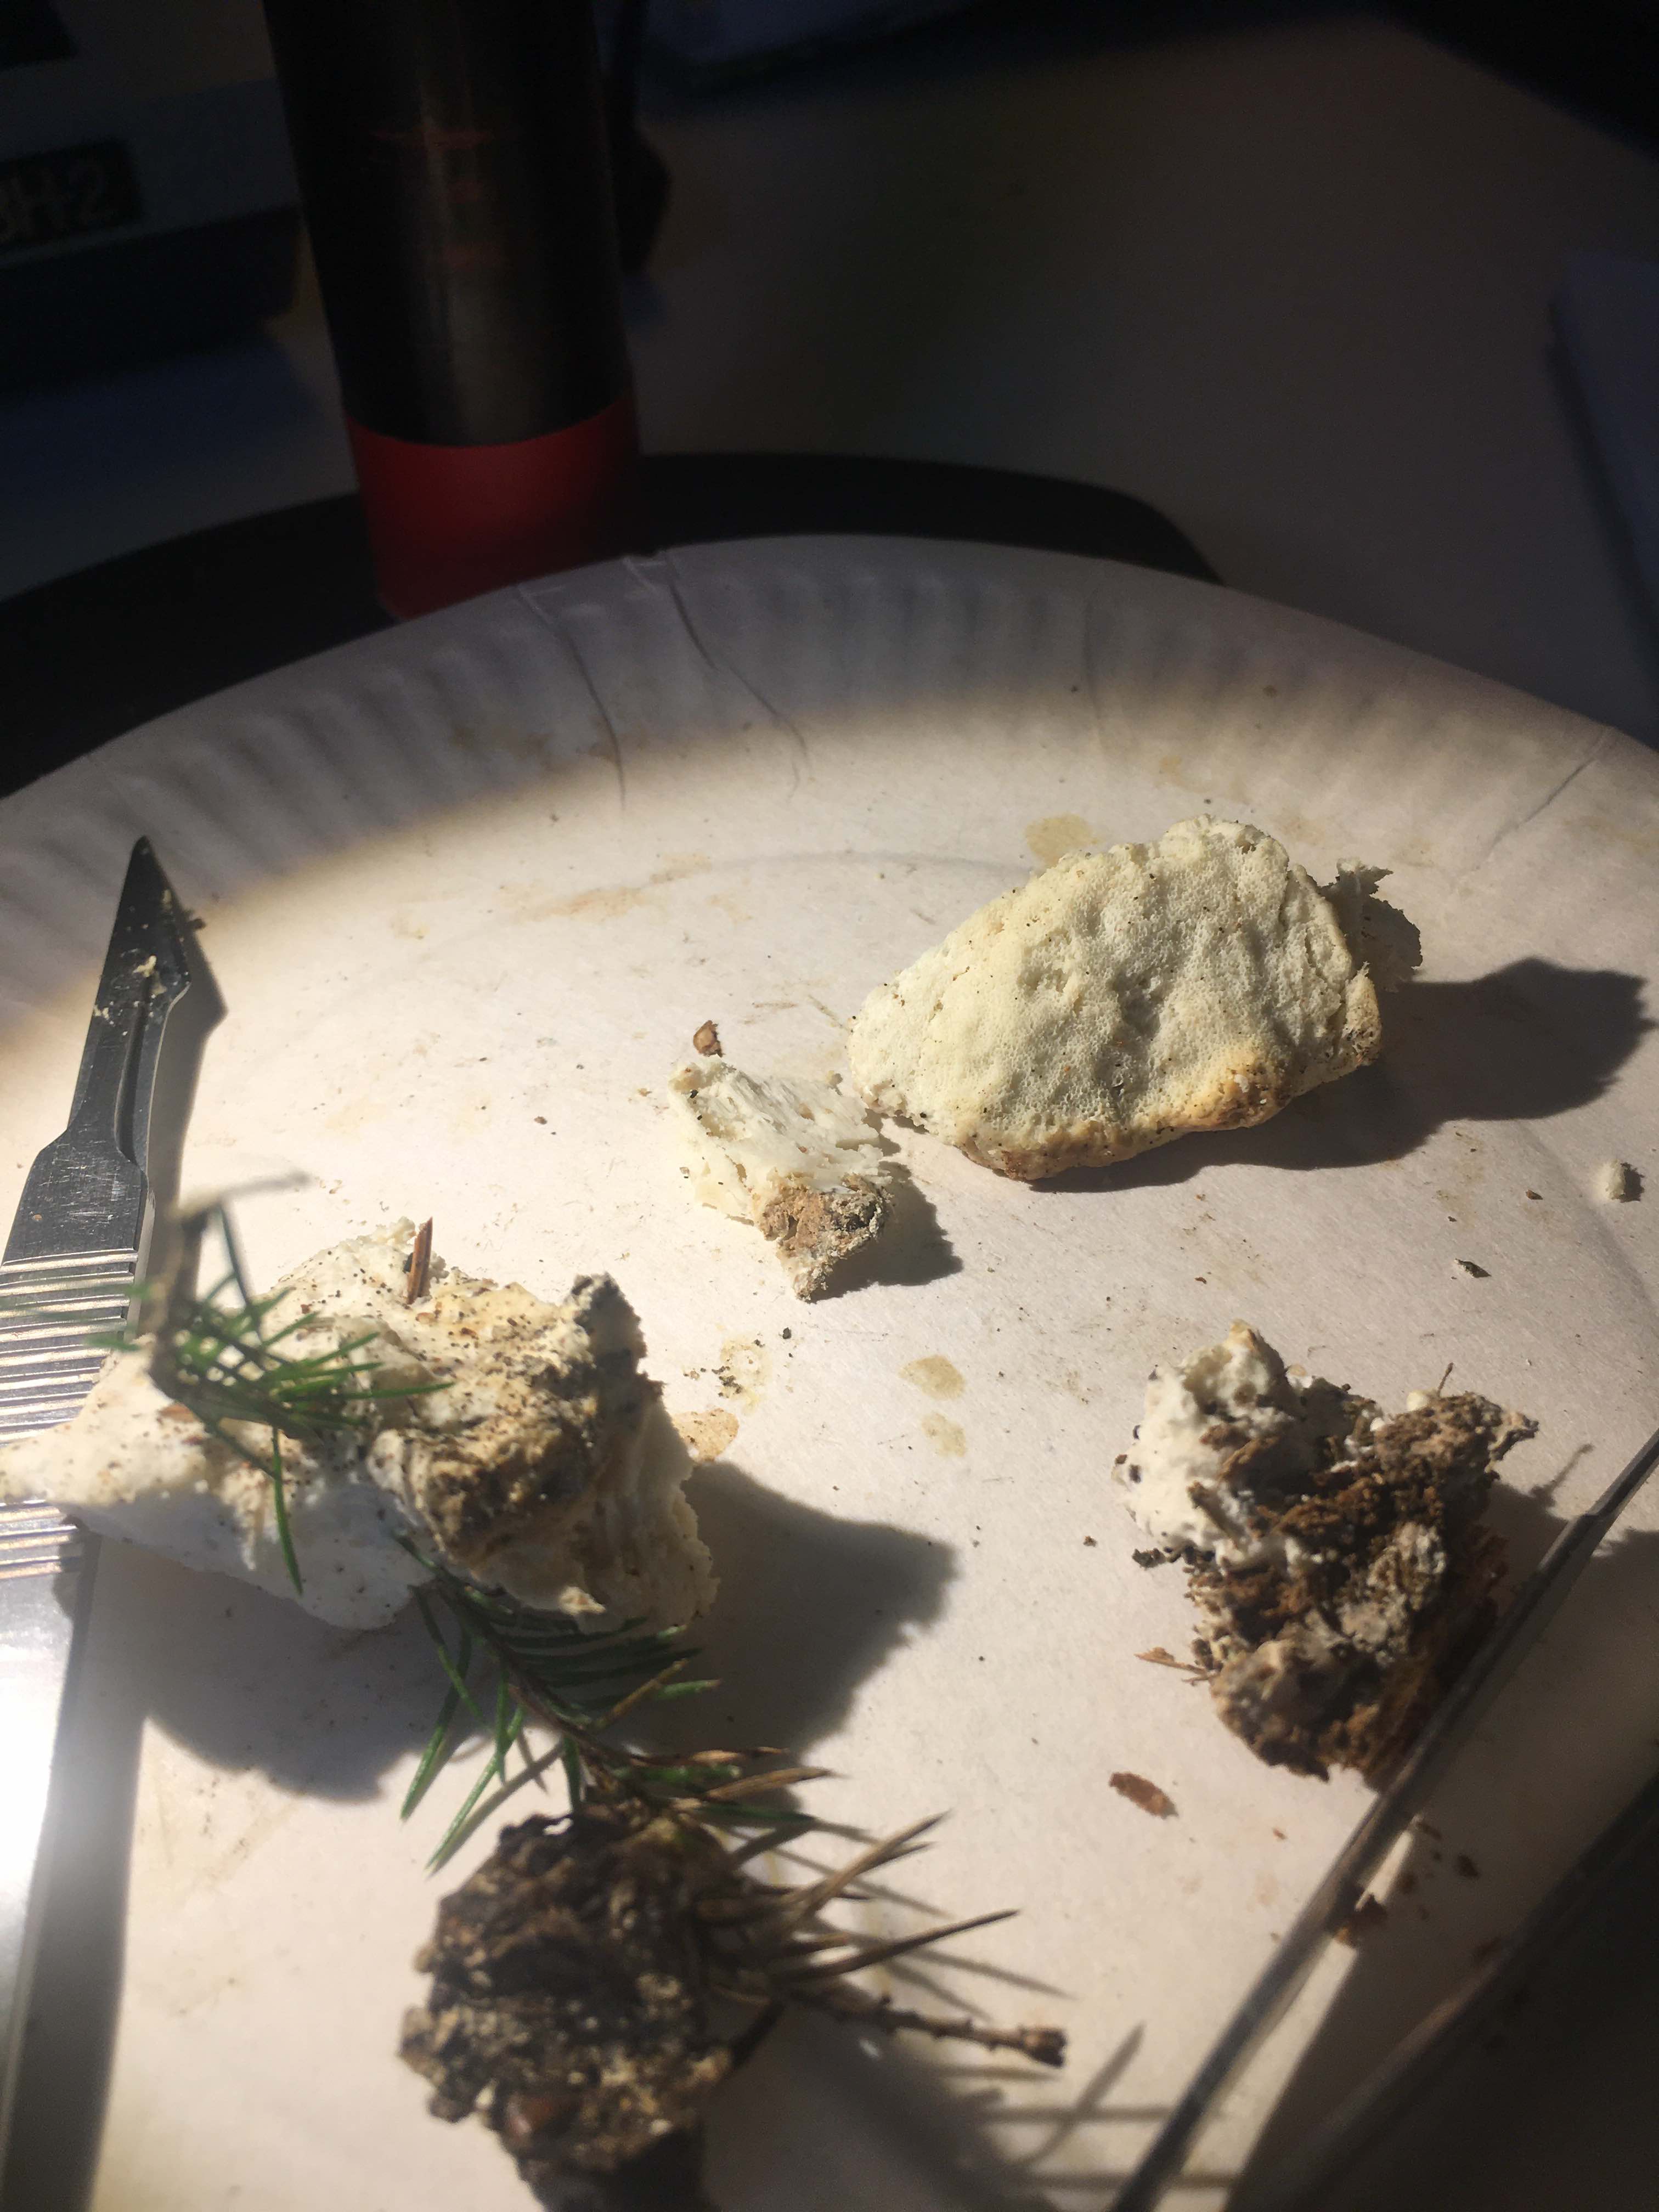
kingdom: Fungi
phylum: Basidiomycota
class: Agaricomycetes
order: Polyporales
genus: Amaropostia
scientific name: Amaropostia stiptica
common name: bitter kødporesvamp
